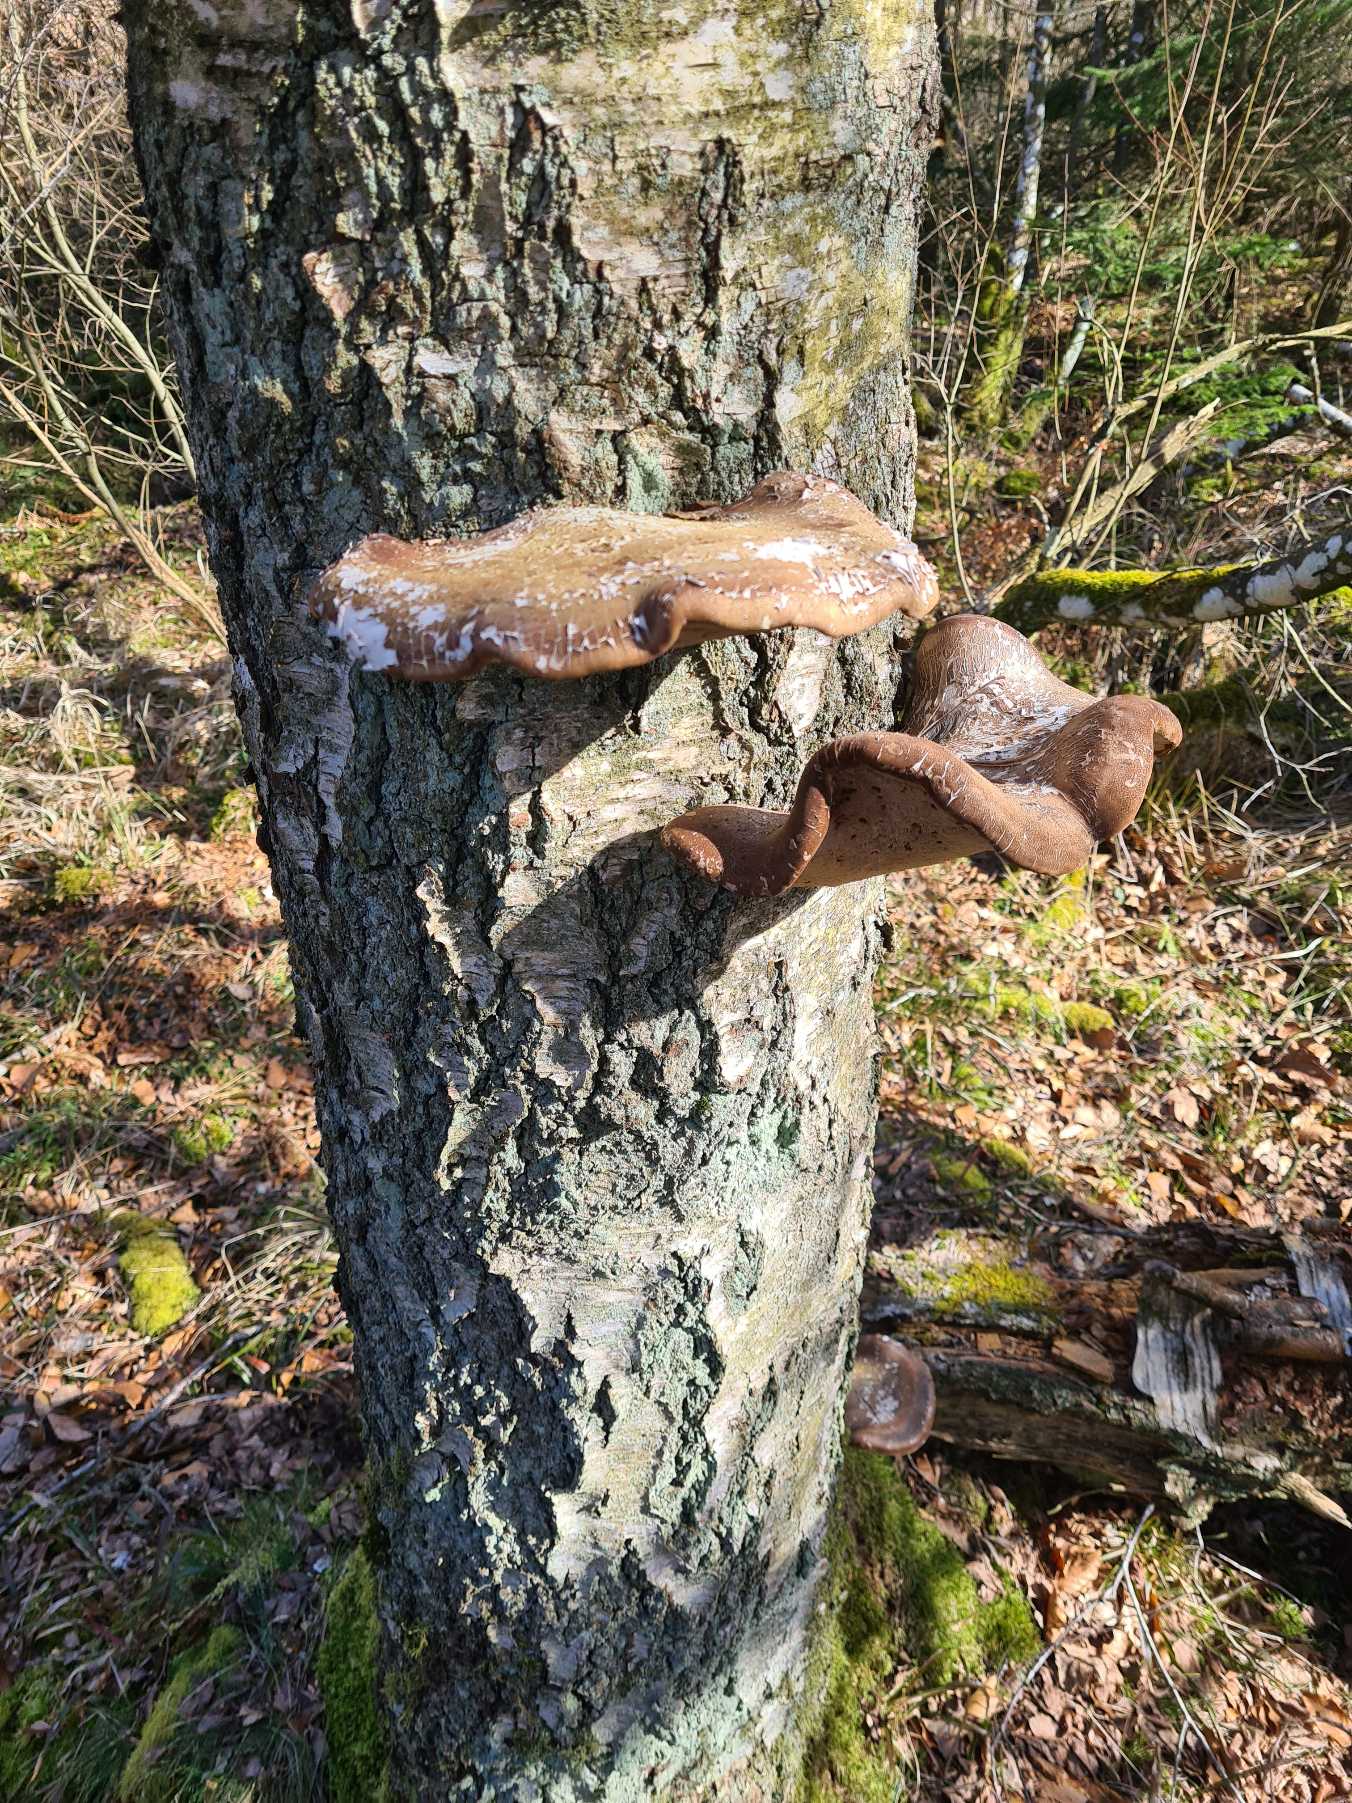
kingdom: Fungi
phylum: Basidiomycota
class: Agaricomycetes
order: Polyporales
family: Fomitopsidaceae
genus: Fomitopsis
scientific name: Fomitopsis betulina
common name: Birkeporesvamp
